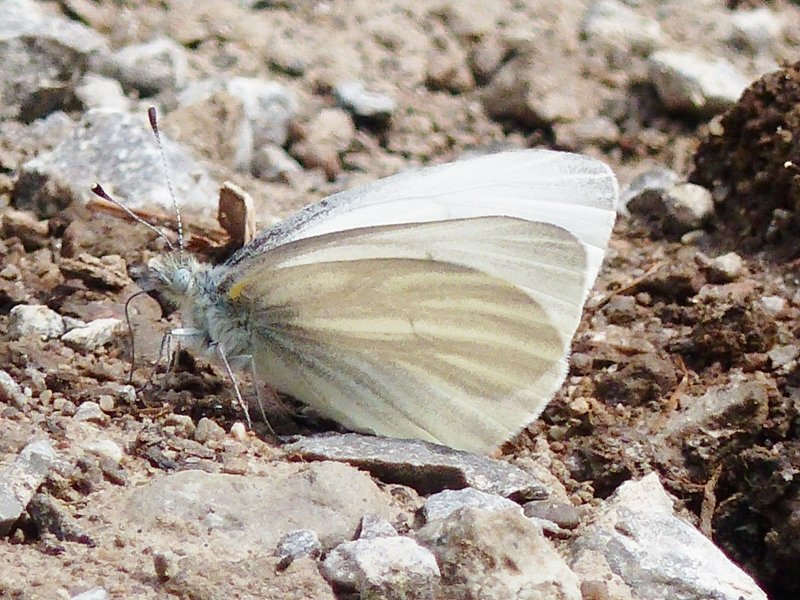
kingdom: Animalia
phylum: Arthropoda
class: Insecta
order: Lepidoptera
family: Pieridae
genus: Pieris
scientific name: Pieris virginiensis
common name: West Virginia White
